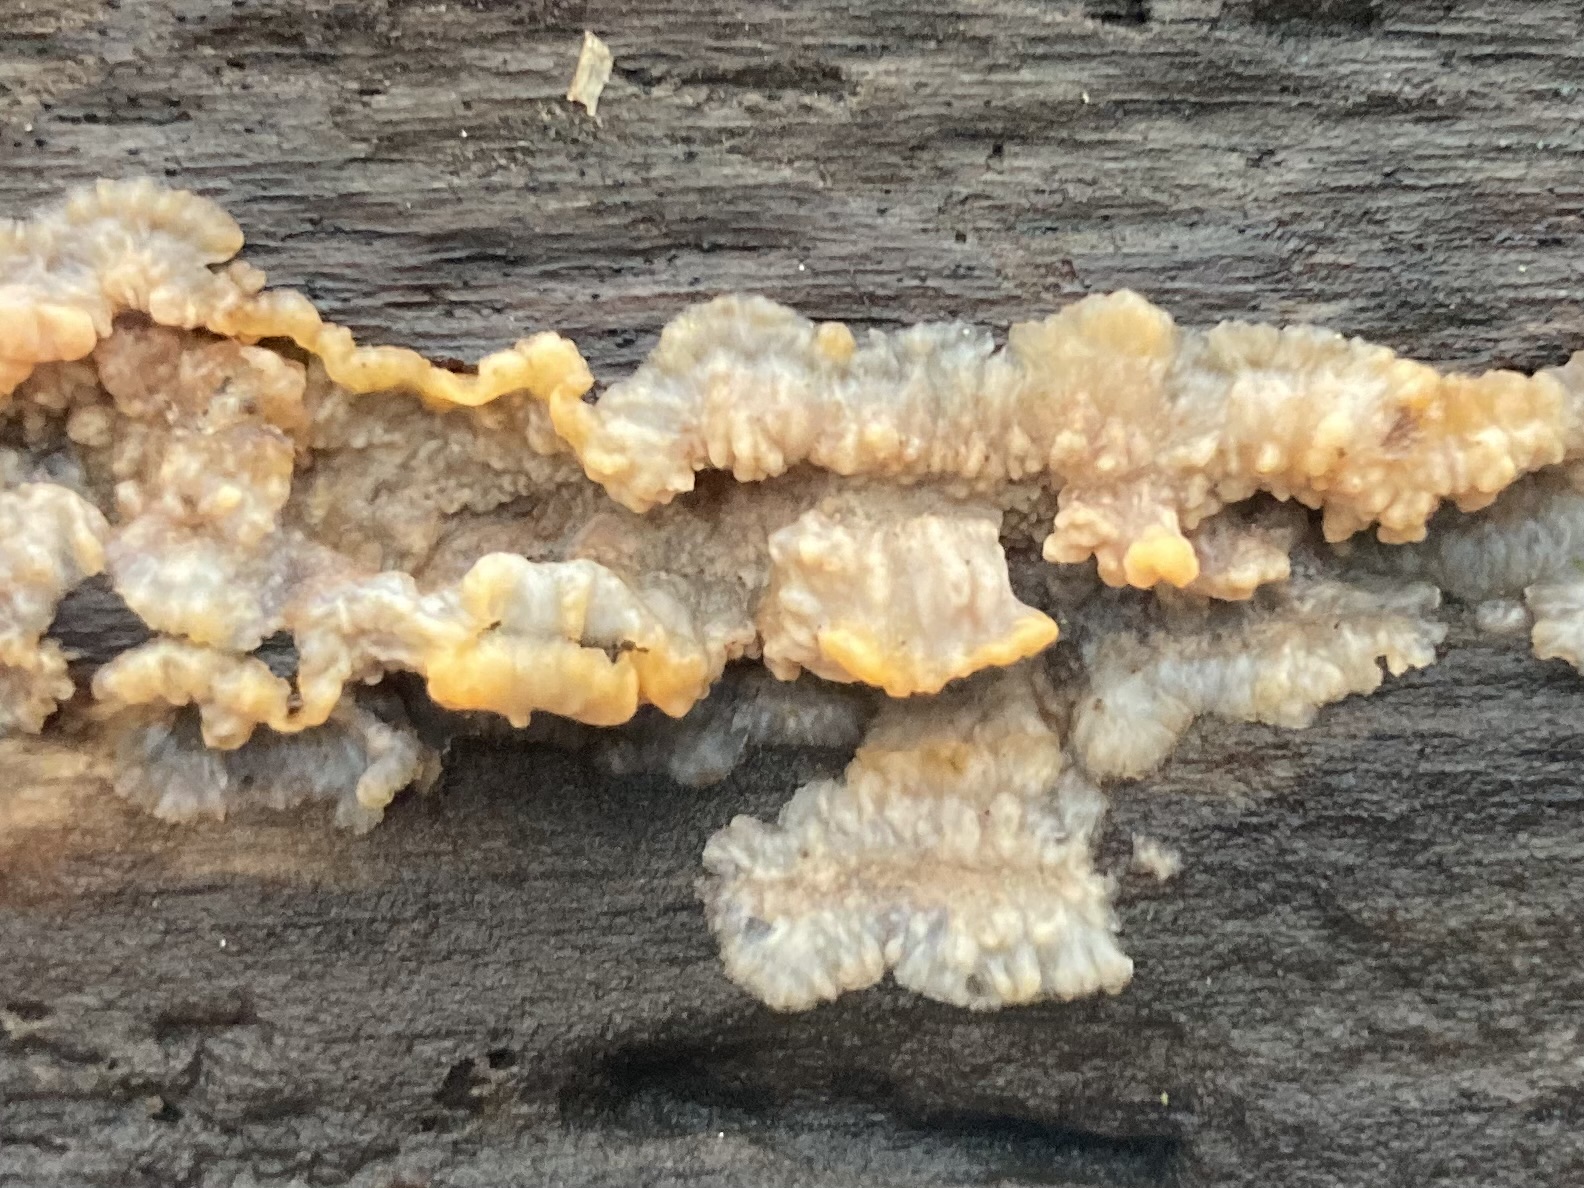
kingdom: Fungi
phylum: Basidiomycota
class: Agaricomycetes
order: Polyporales
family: Meruliaceae
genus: Phlebia
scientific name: Phlebia radiata
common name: stråle-åresvamp
